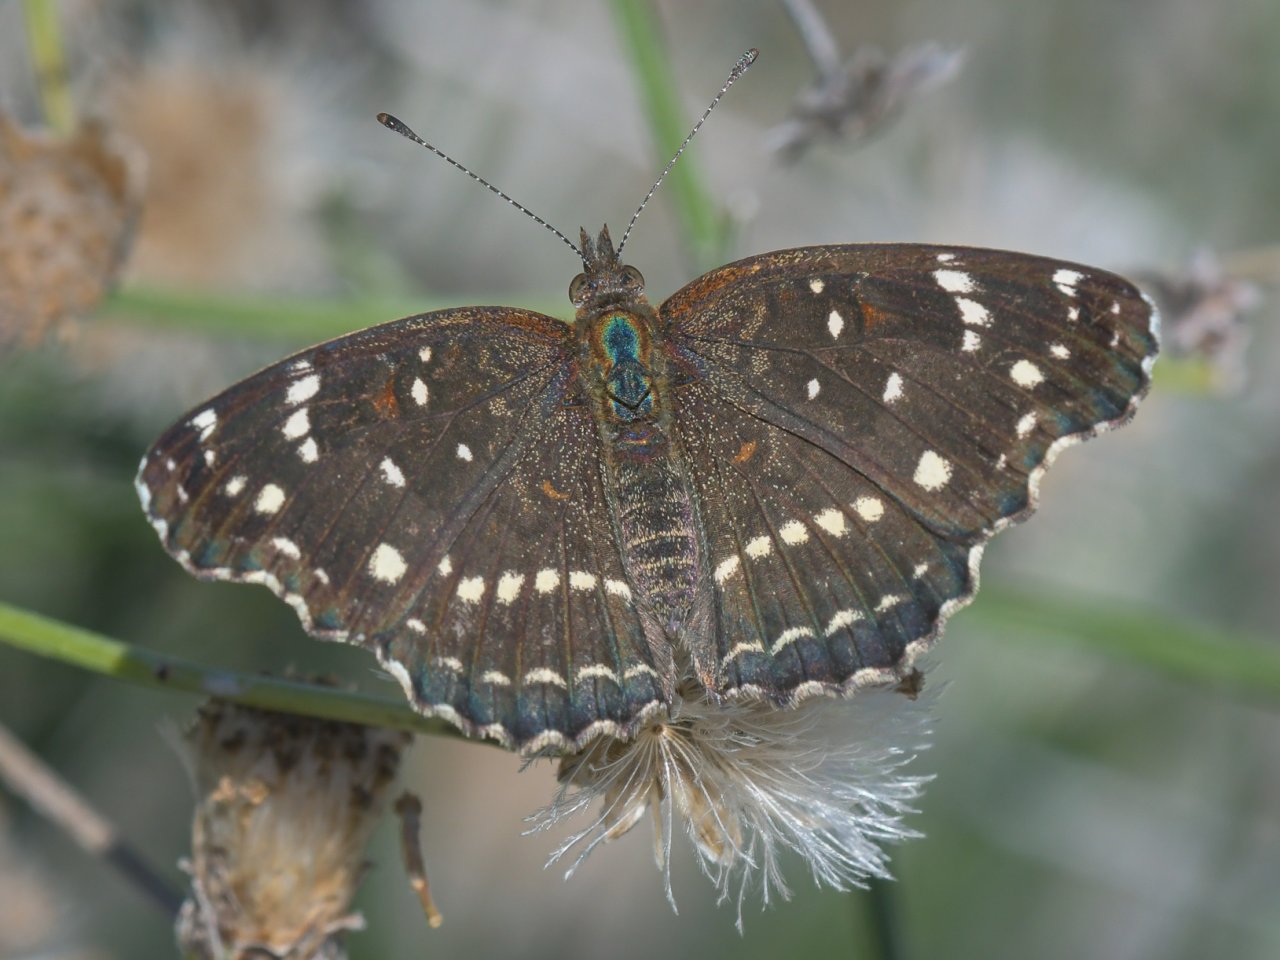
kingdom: Animalia
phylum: Arthropoda
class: Insecta
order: Lepidoptera
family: Nymphalidae
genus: Anthanassa
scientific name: Anthanassa texana
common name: Texan Crescent
